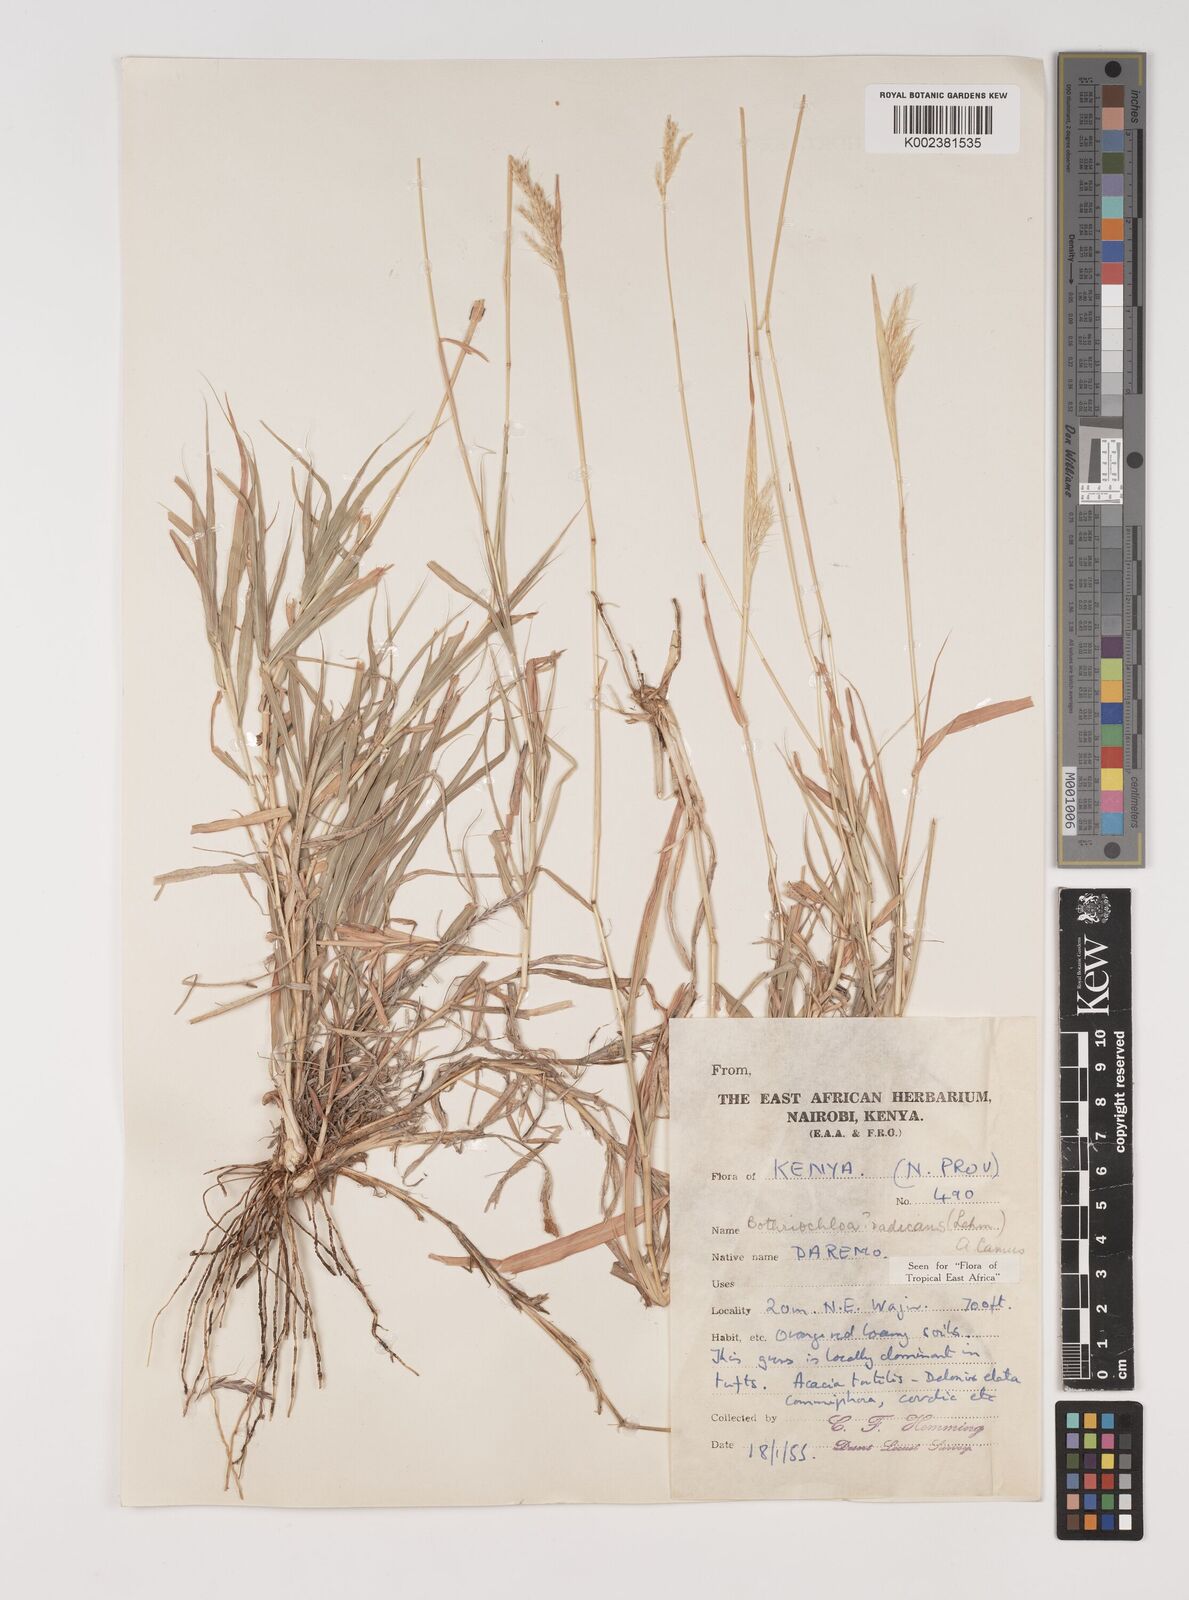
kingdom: Plantae
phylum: Tracheophyta
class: Liliopsida
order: Poales
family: Poaceae
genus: Bothriochloa
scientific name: Bothriochloa radicans
